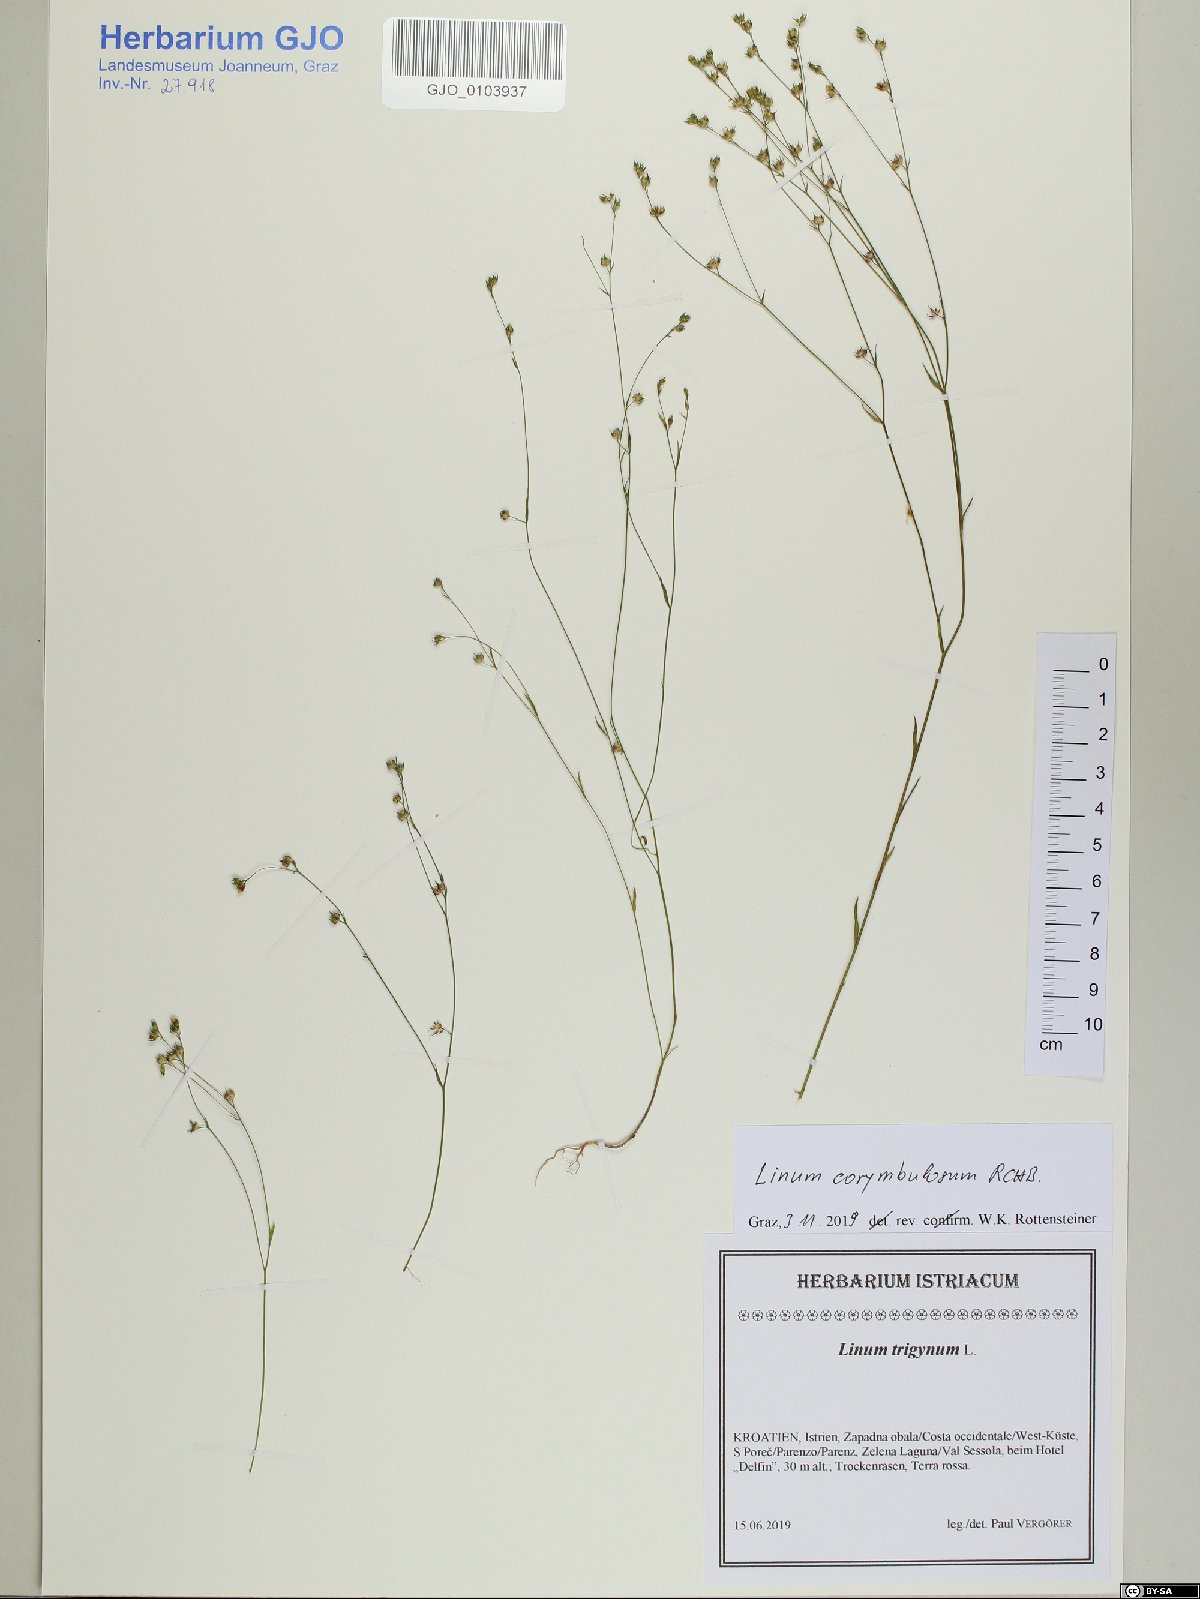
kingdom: Plantae
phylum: Tracheophyta
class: Magnoliopsida
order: Malpighiales
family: Linaceae
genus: Linum
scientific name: Linum corymbulosum
